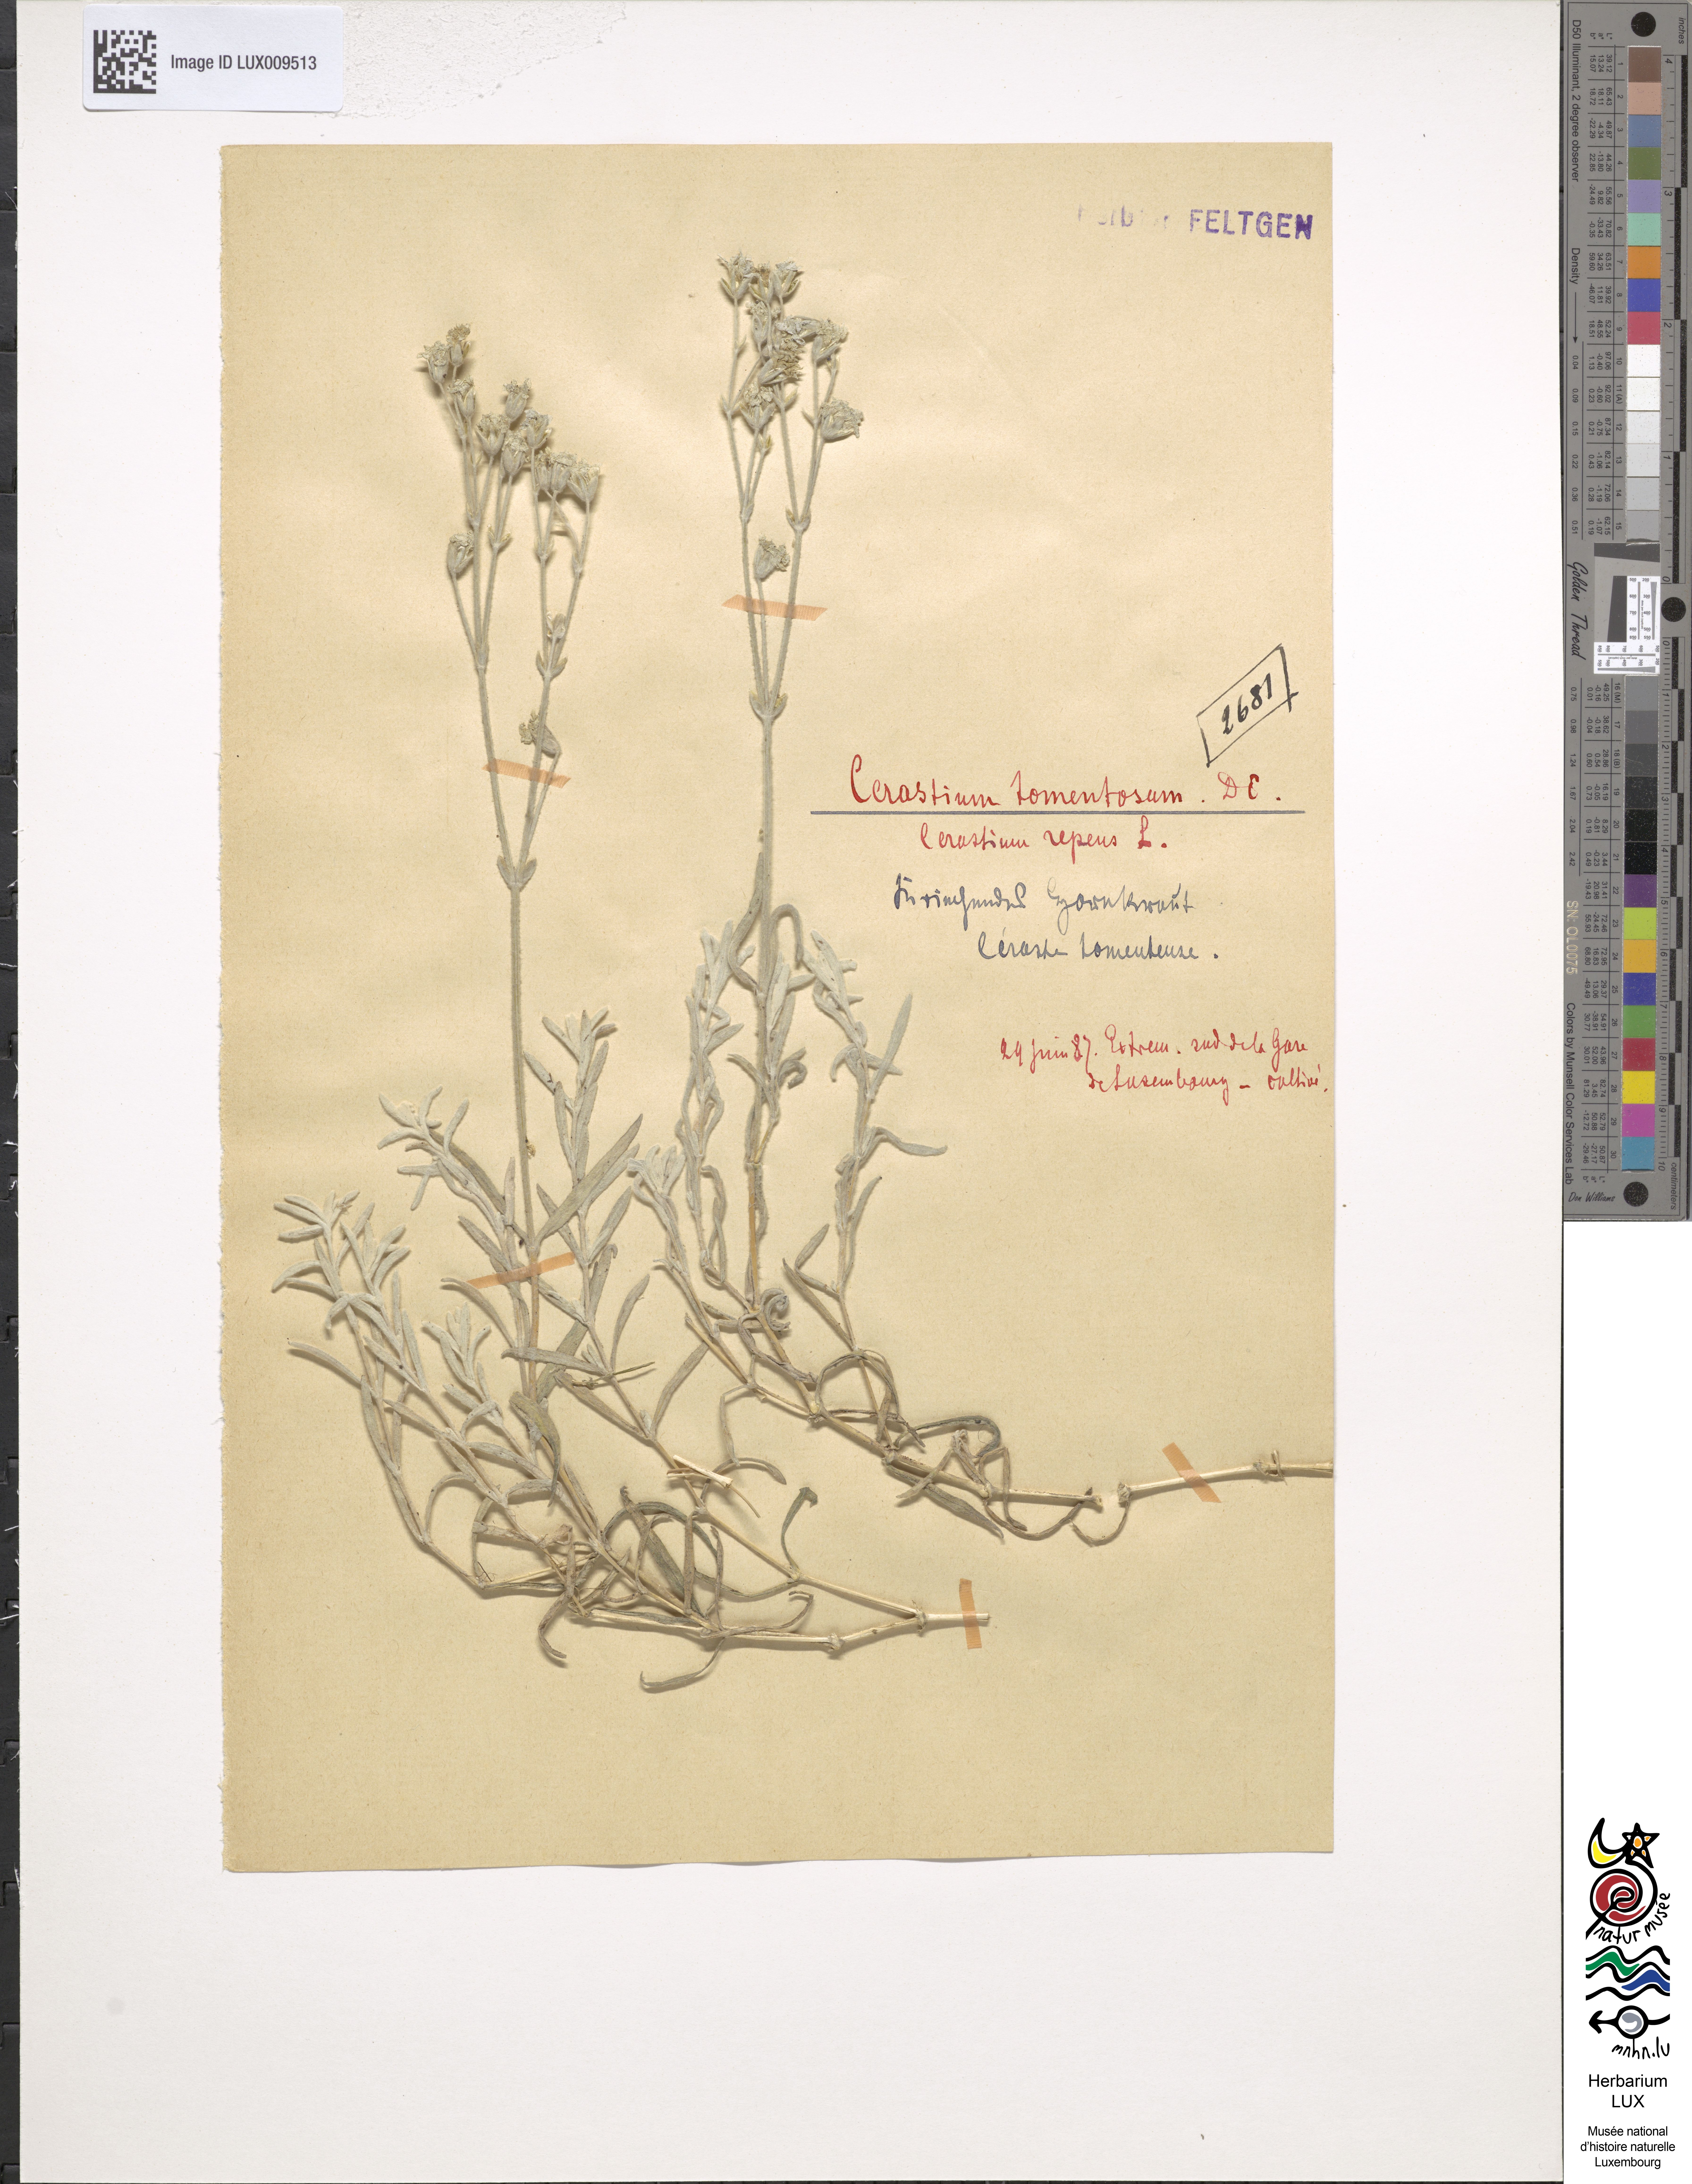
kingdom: Plantae
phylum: Tracheophyta
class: Magnoliopsida
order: Caryophyllales
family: Caryophyllaceae
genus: Cerastium
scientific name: Cerastium tomentosum
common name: Snow-in-summer
